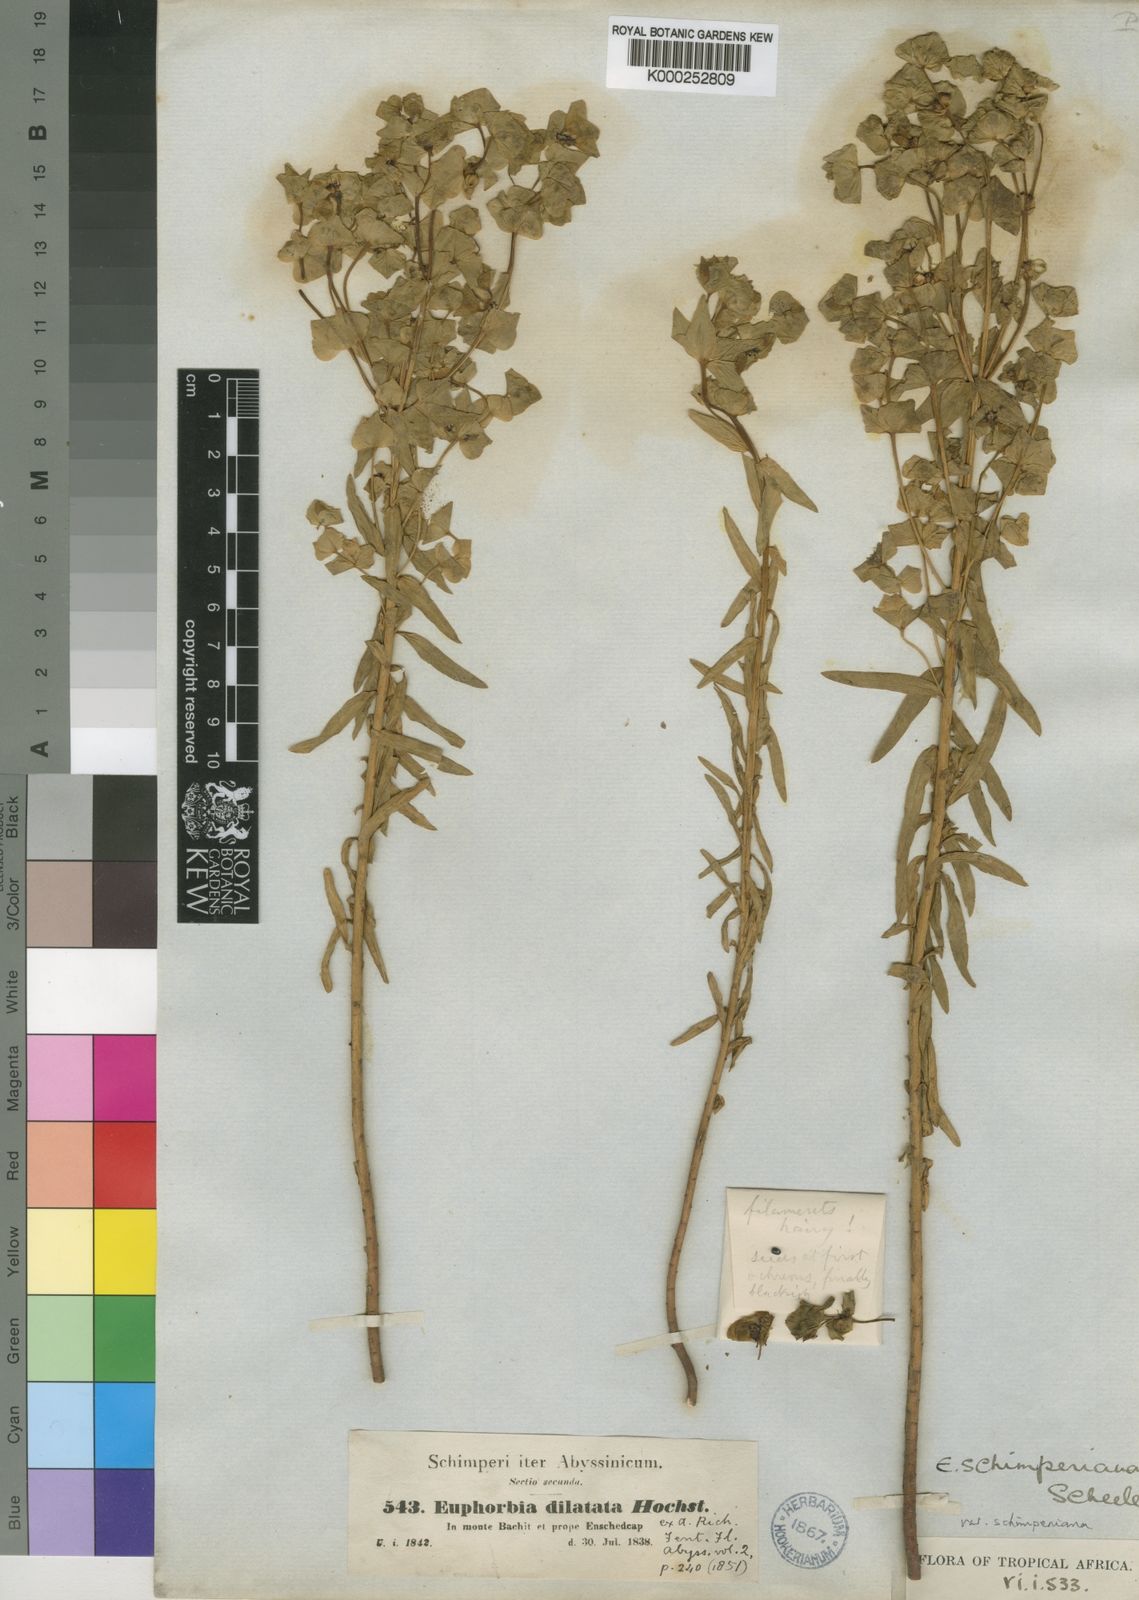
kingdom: Plantae
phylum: Tracheophyta
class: Magnoliopsida
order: Malpighiales
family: Euphorbiaceae
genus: Euphorbia
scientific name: Euphorbia schimperiana
